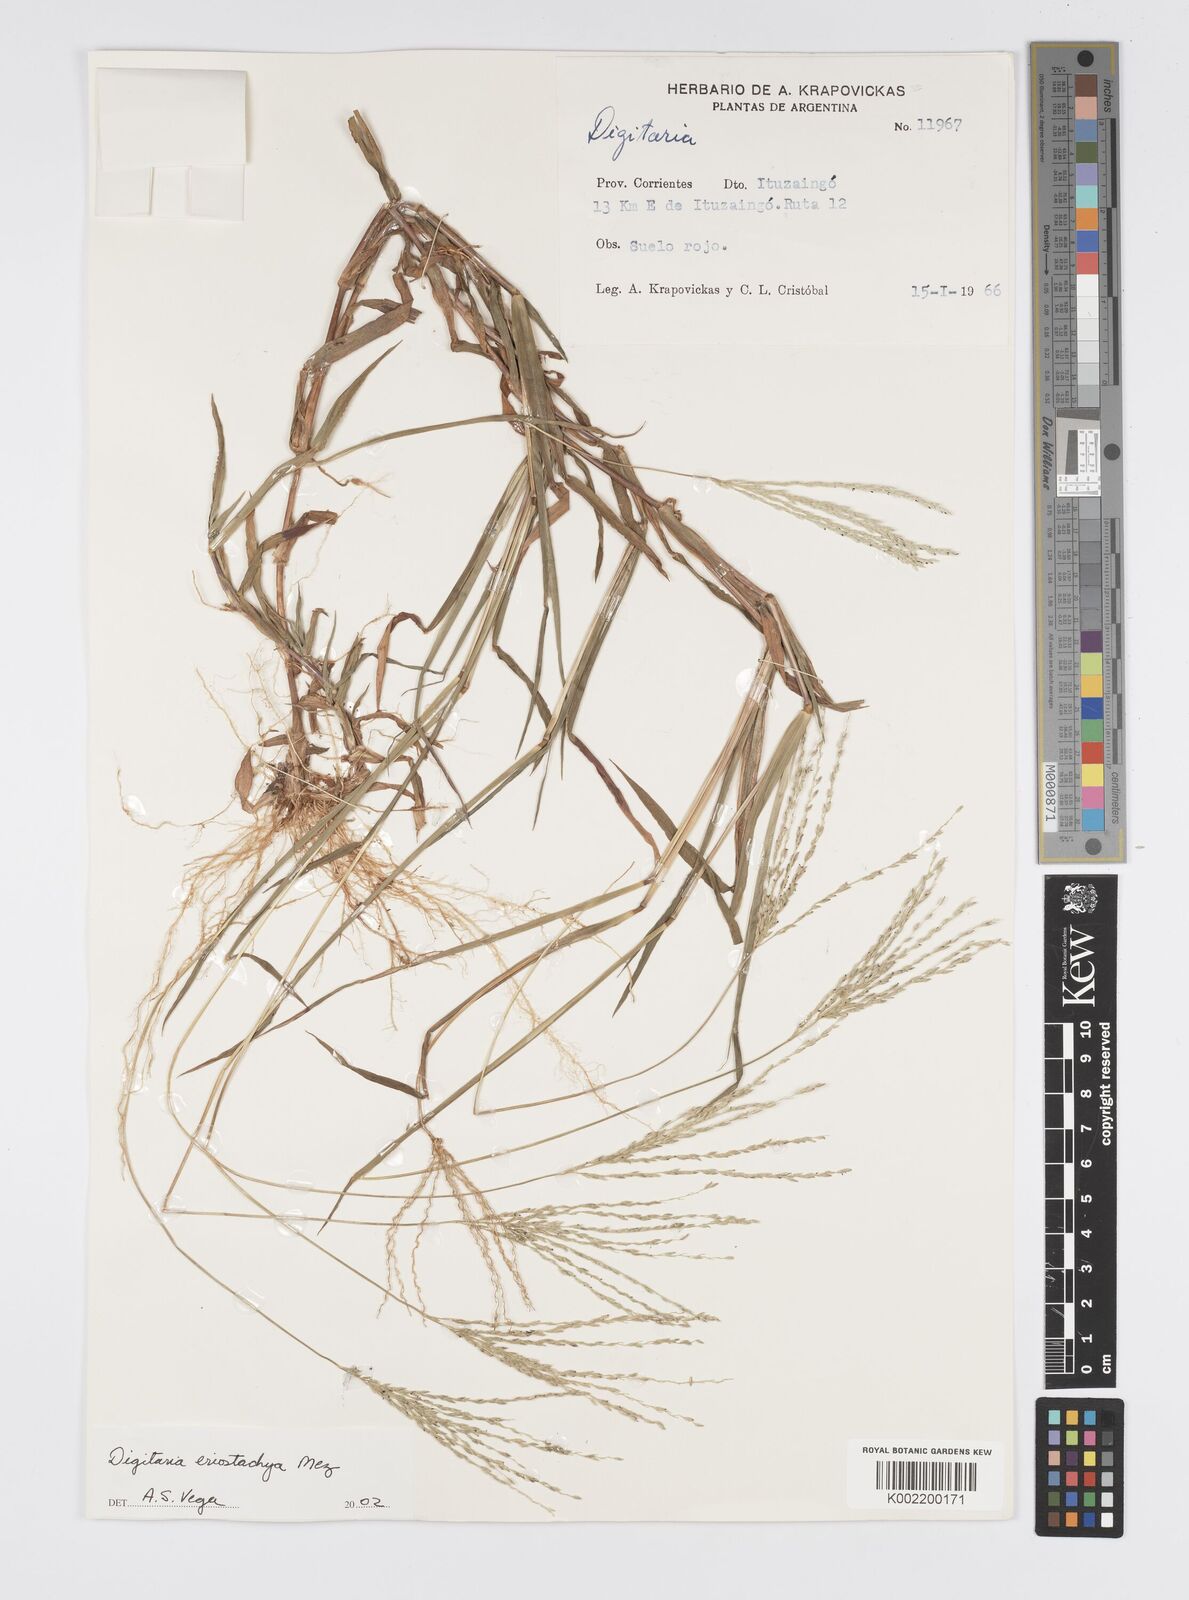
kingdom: Plantae
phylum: Tracheophyta
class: Liliopsida
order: Poales
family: Poaceae
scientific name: Poaceae
